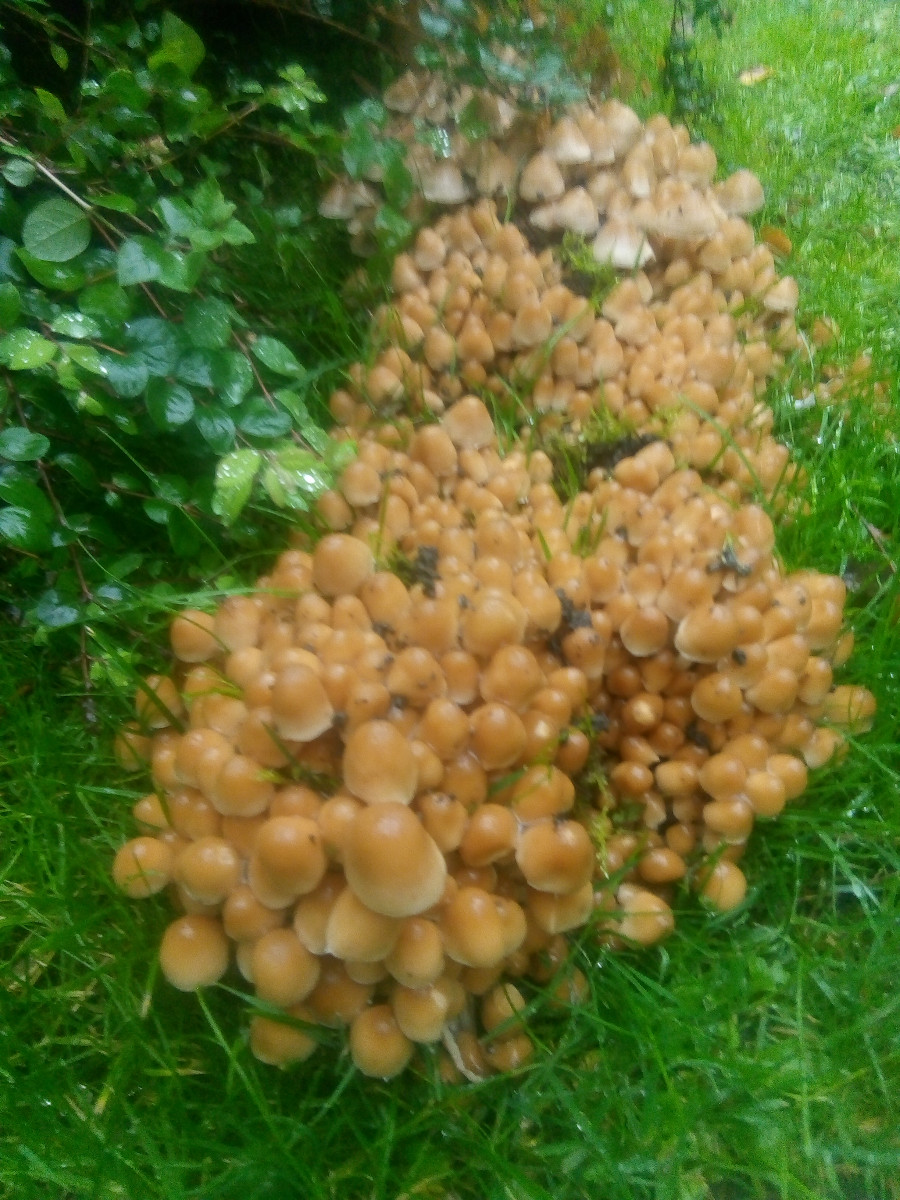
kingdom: Fungi
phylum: Basidiomycota
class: Agaricomycetes
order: Agaricales
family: Psathyrellaceae
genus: Britzelmayria
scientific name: Britzelmayria multipedata
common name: knippe-mørkhat
